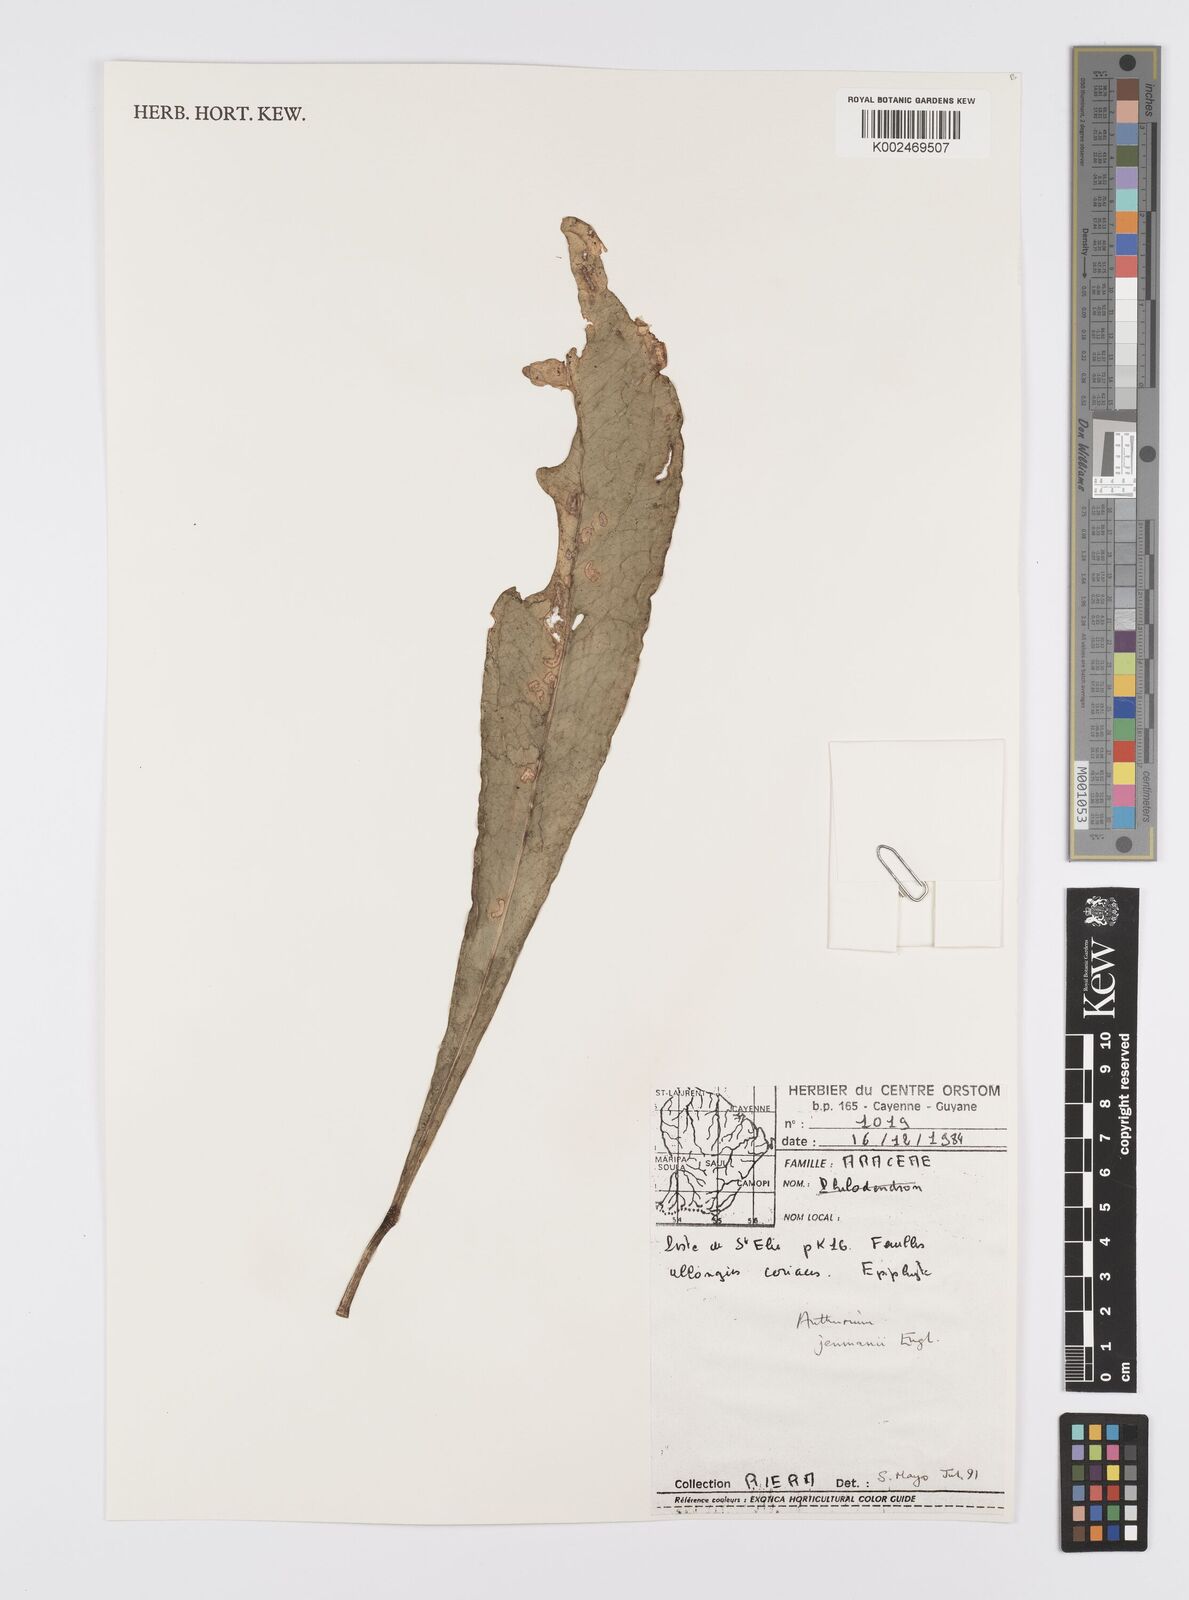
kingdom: Plantae
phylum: Tracheophyta
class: Liliopsida
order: Alismatales
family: Araceae
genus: Anthurium
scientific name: Anthurium jenmanii
